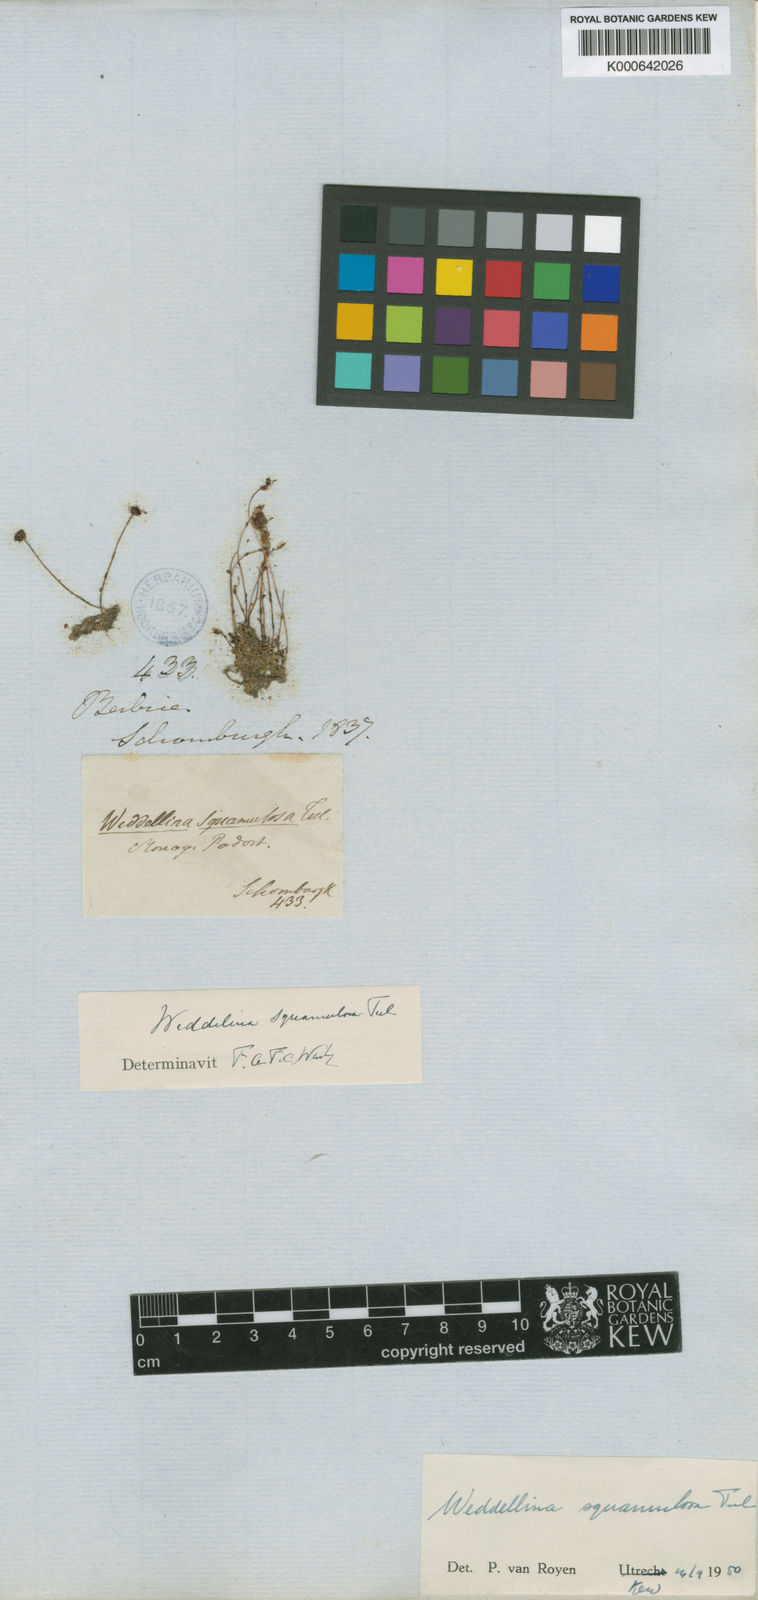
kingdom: Plantae
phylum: Tracheophyta
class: Magnoliopsida
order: Malpighiales
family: Podostemaceae
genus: Weddellina
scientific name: Weddellina squamulosa
